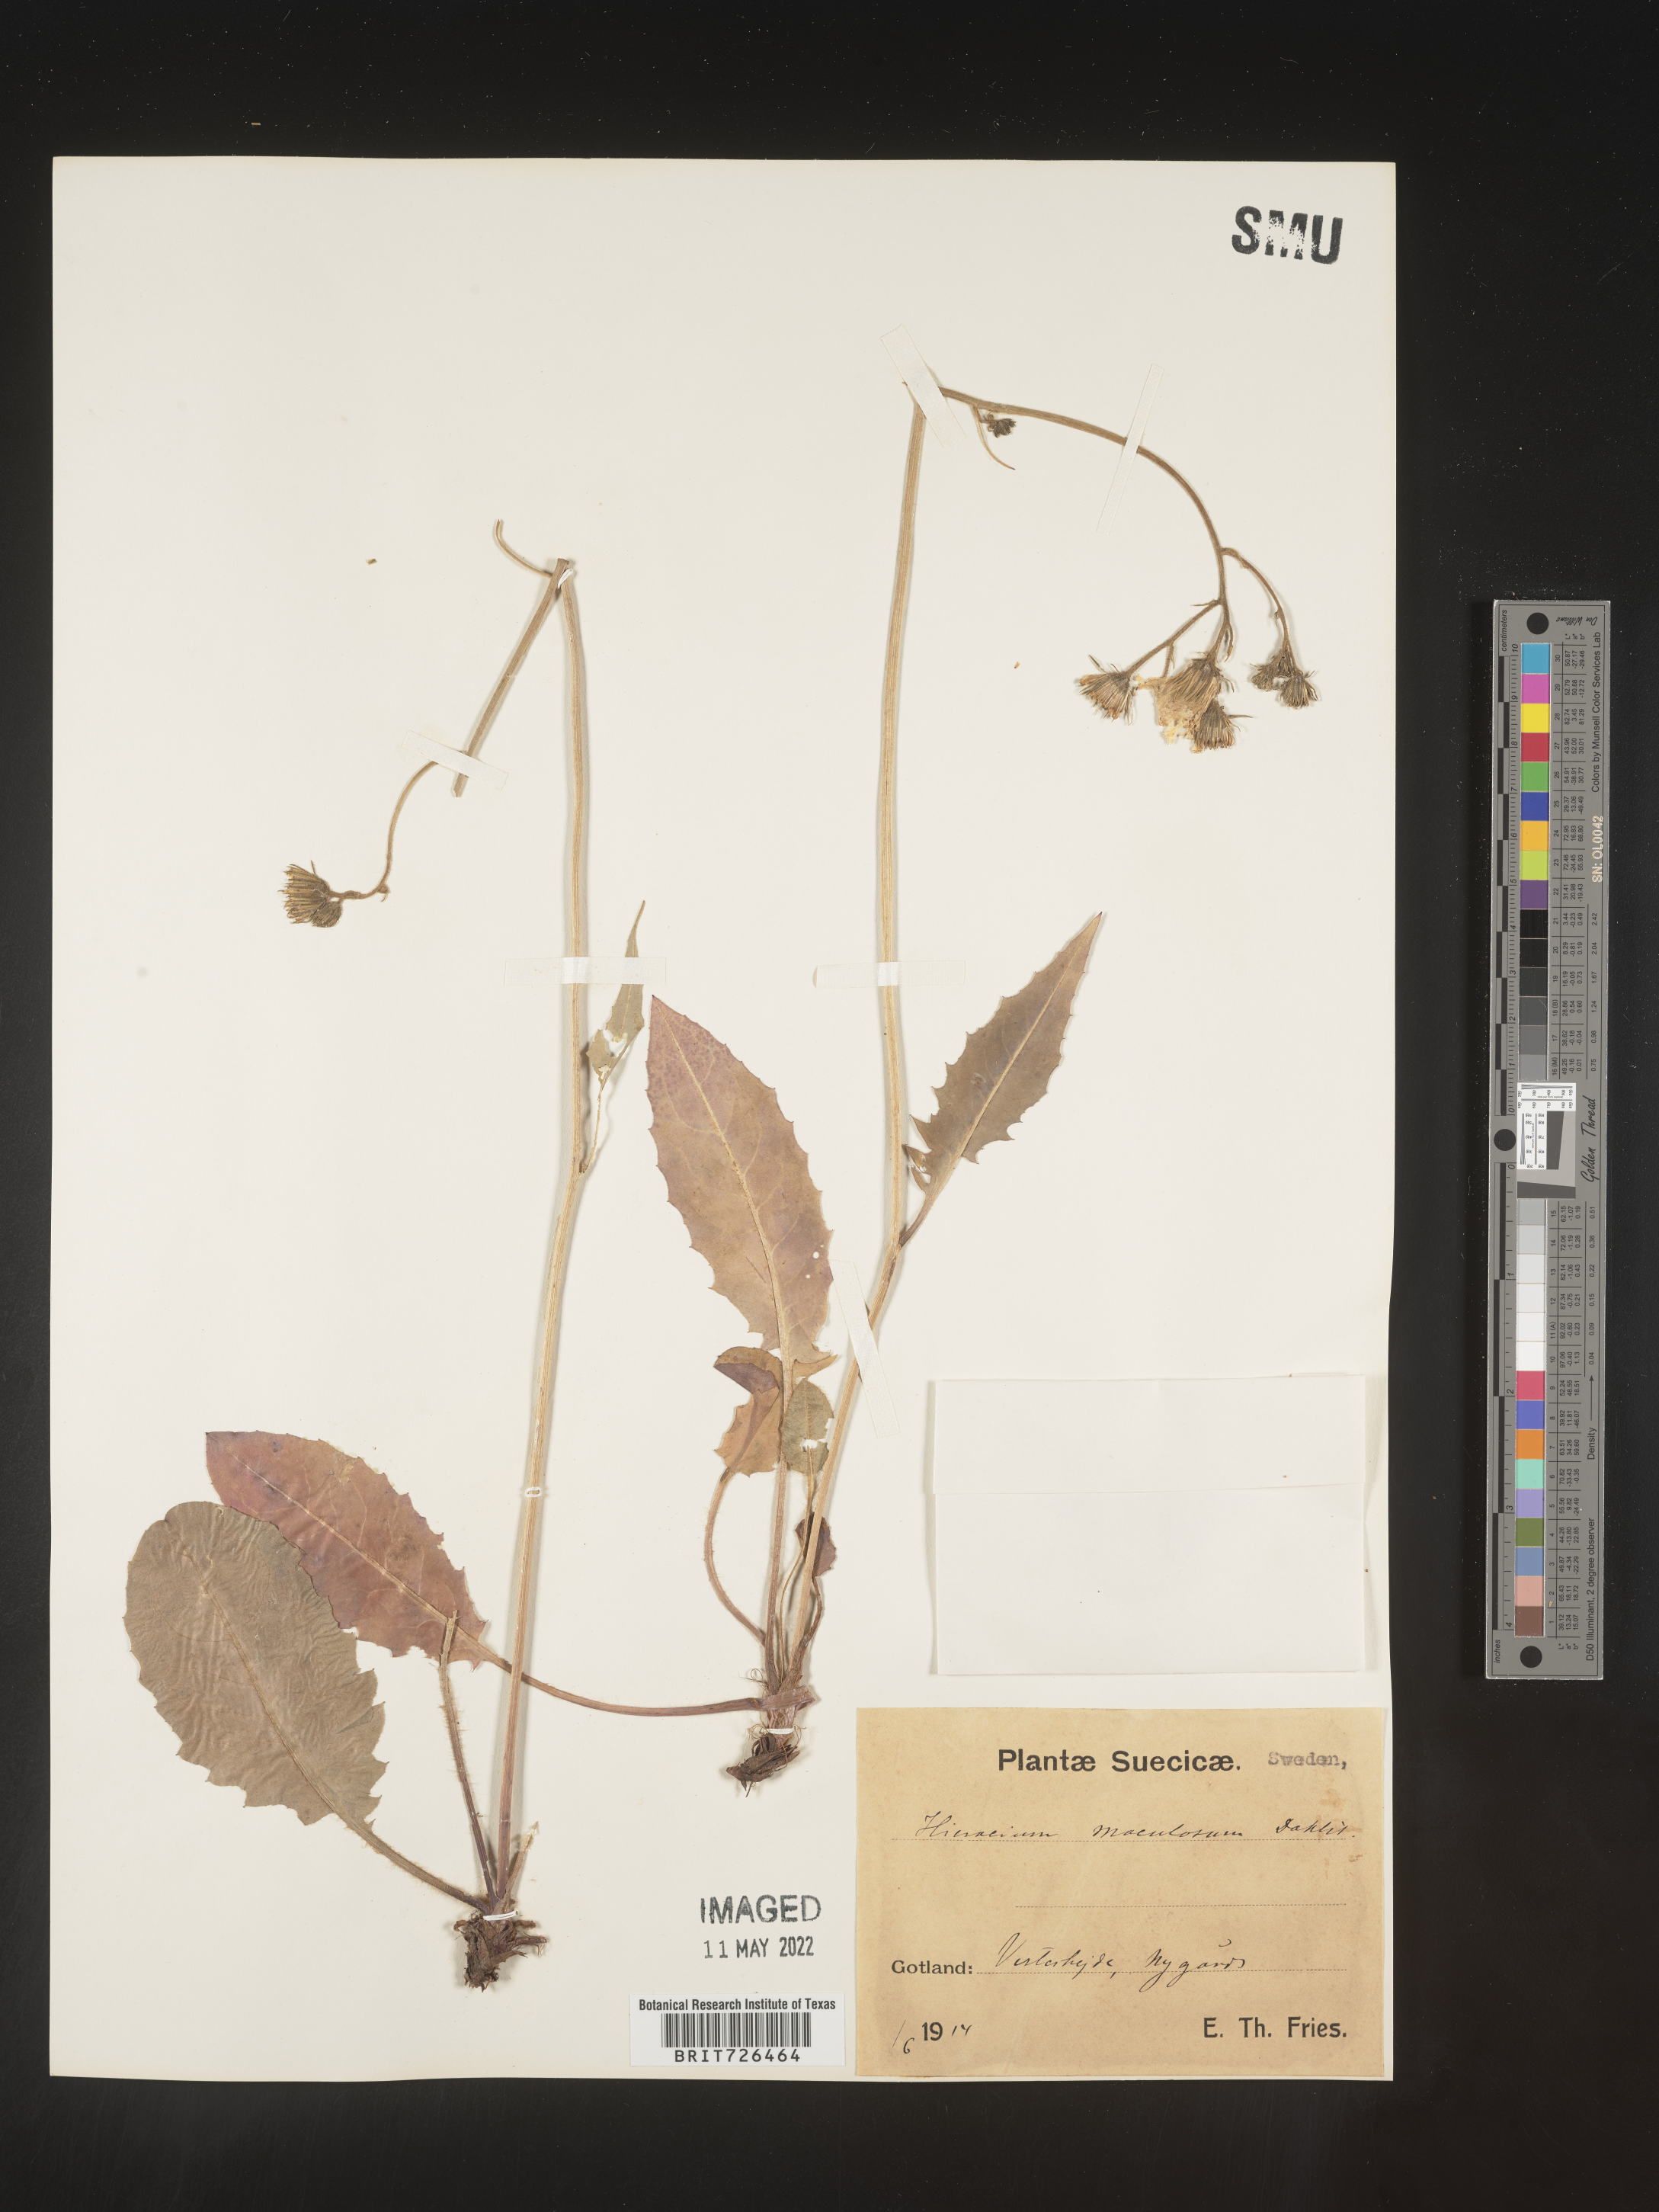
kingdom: Plantae
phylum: Tracheophyta
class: Magnoliopsida
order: Asterales
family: Asteraceae
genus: Hieracium
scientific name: Hieracium
